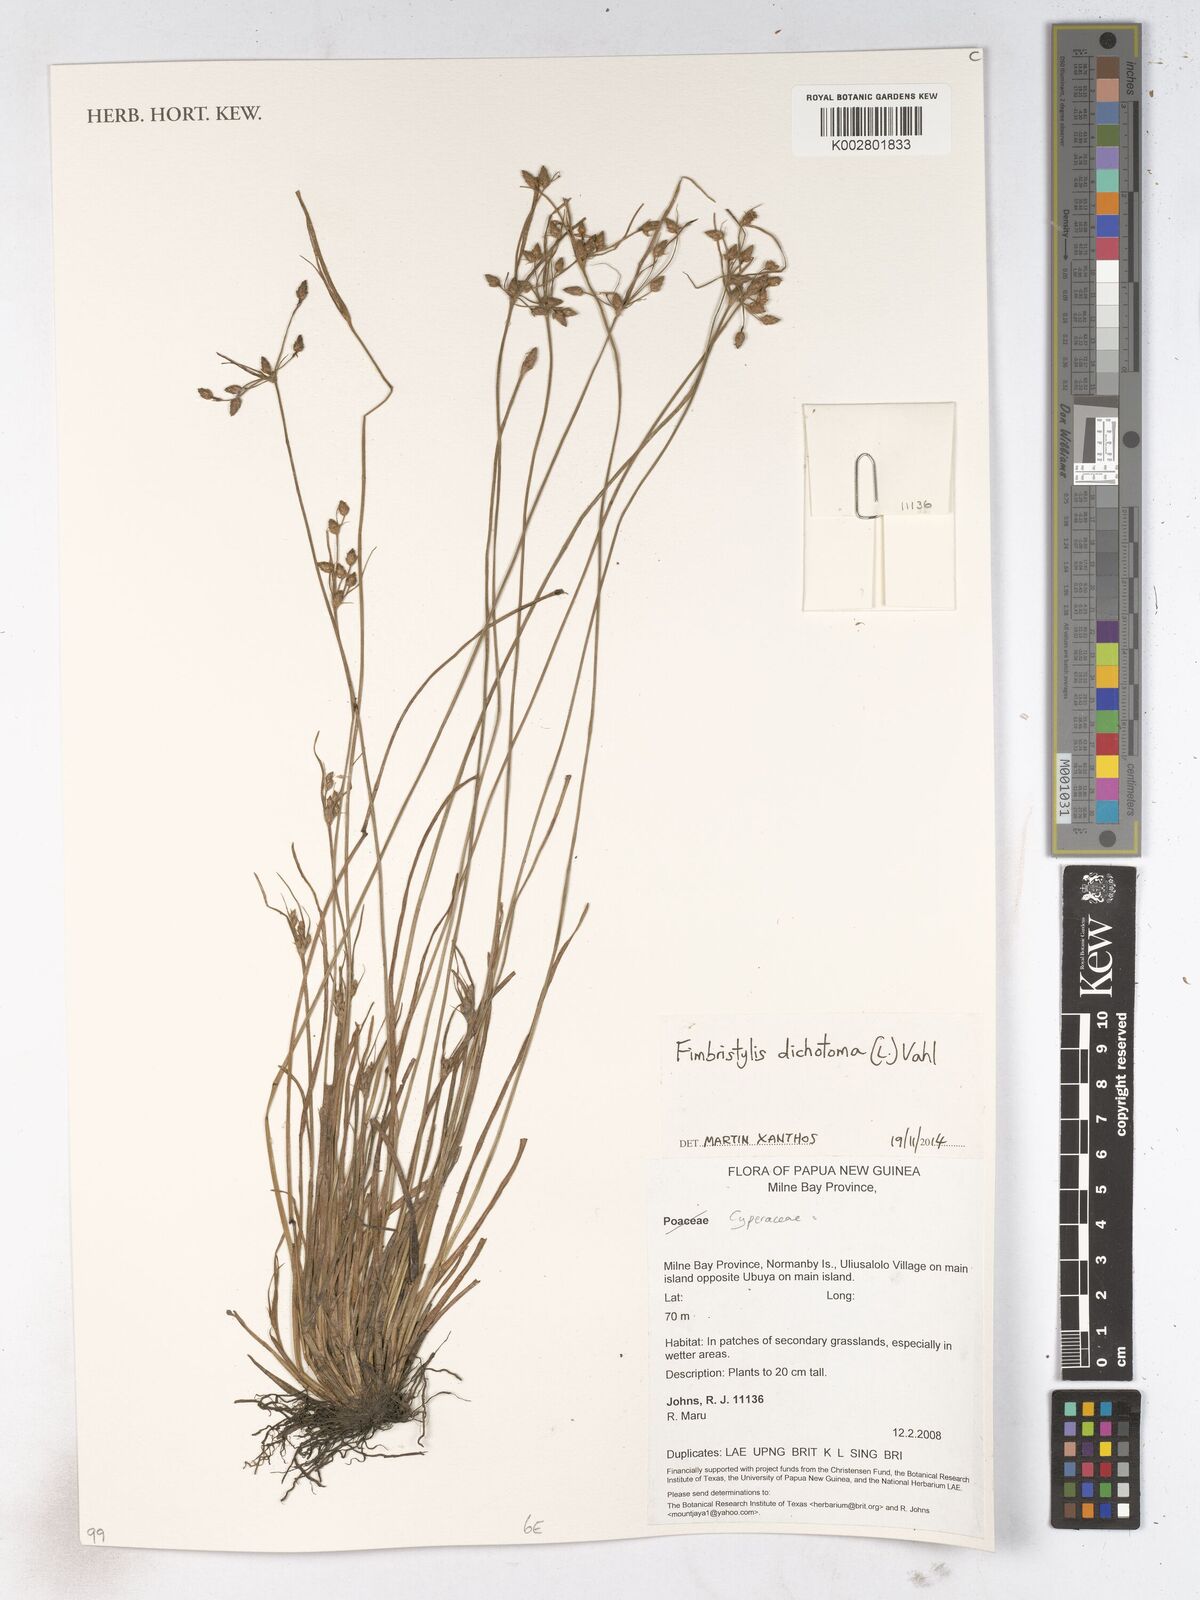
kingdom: Plantae
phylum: Tracheophyta
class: Liliopsida
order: Poales
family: Cyperaceae
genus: Fimbristylis
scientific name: Fimbristylis dichotoma
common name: Forked fimbry
